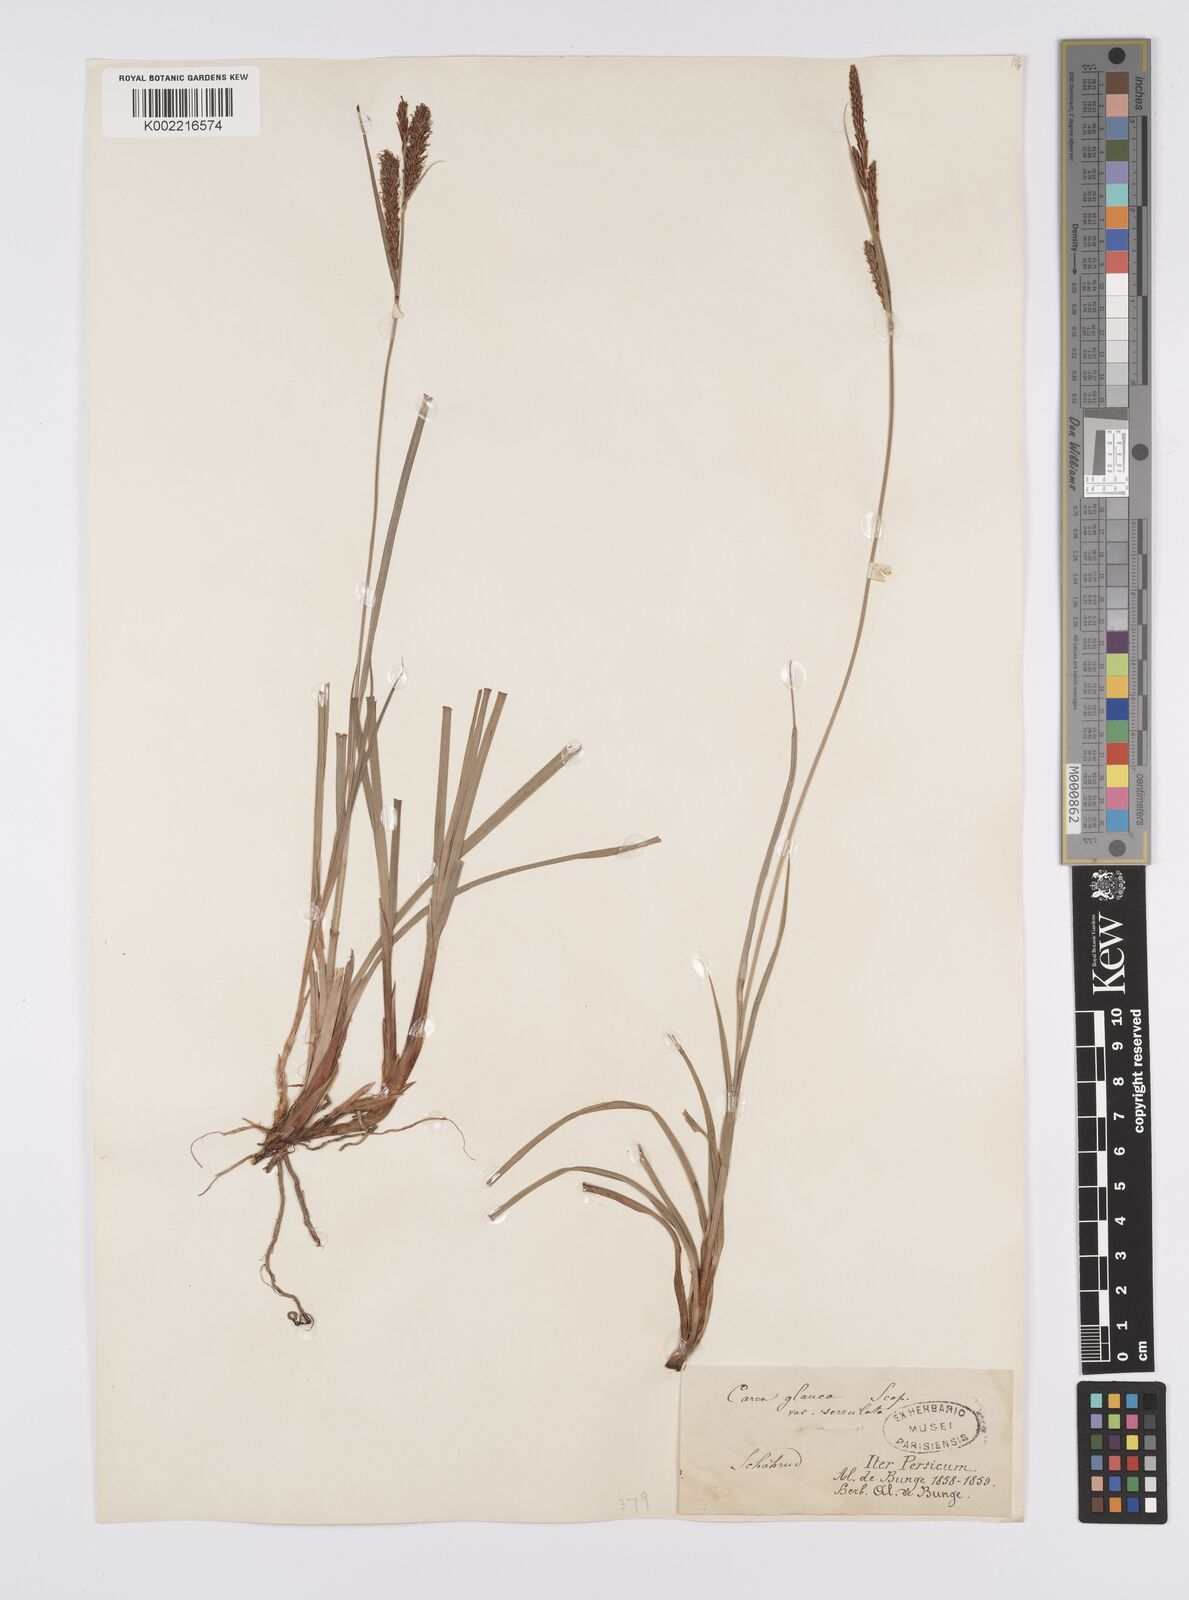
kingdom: Plantae
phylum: Tracheophyta
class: Liliopsida
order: Poales
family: Cyperaceae
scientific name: Cyperaceae
